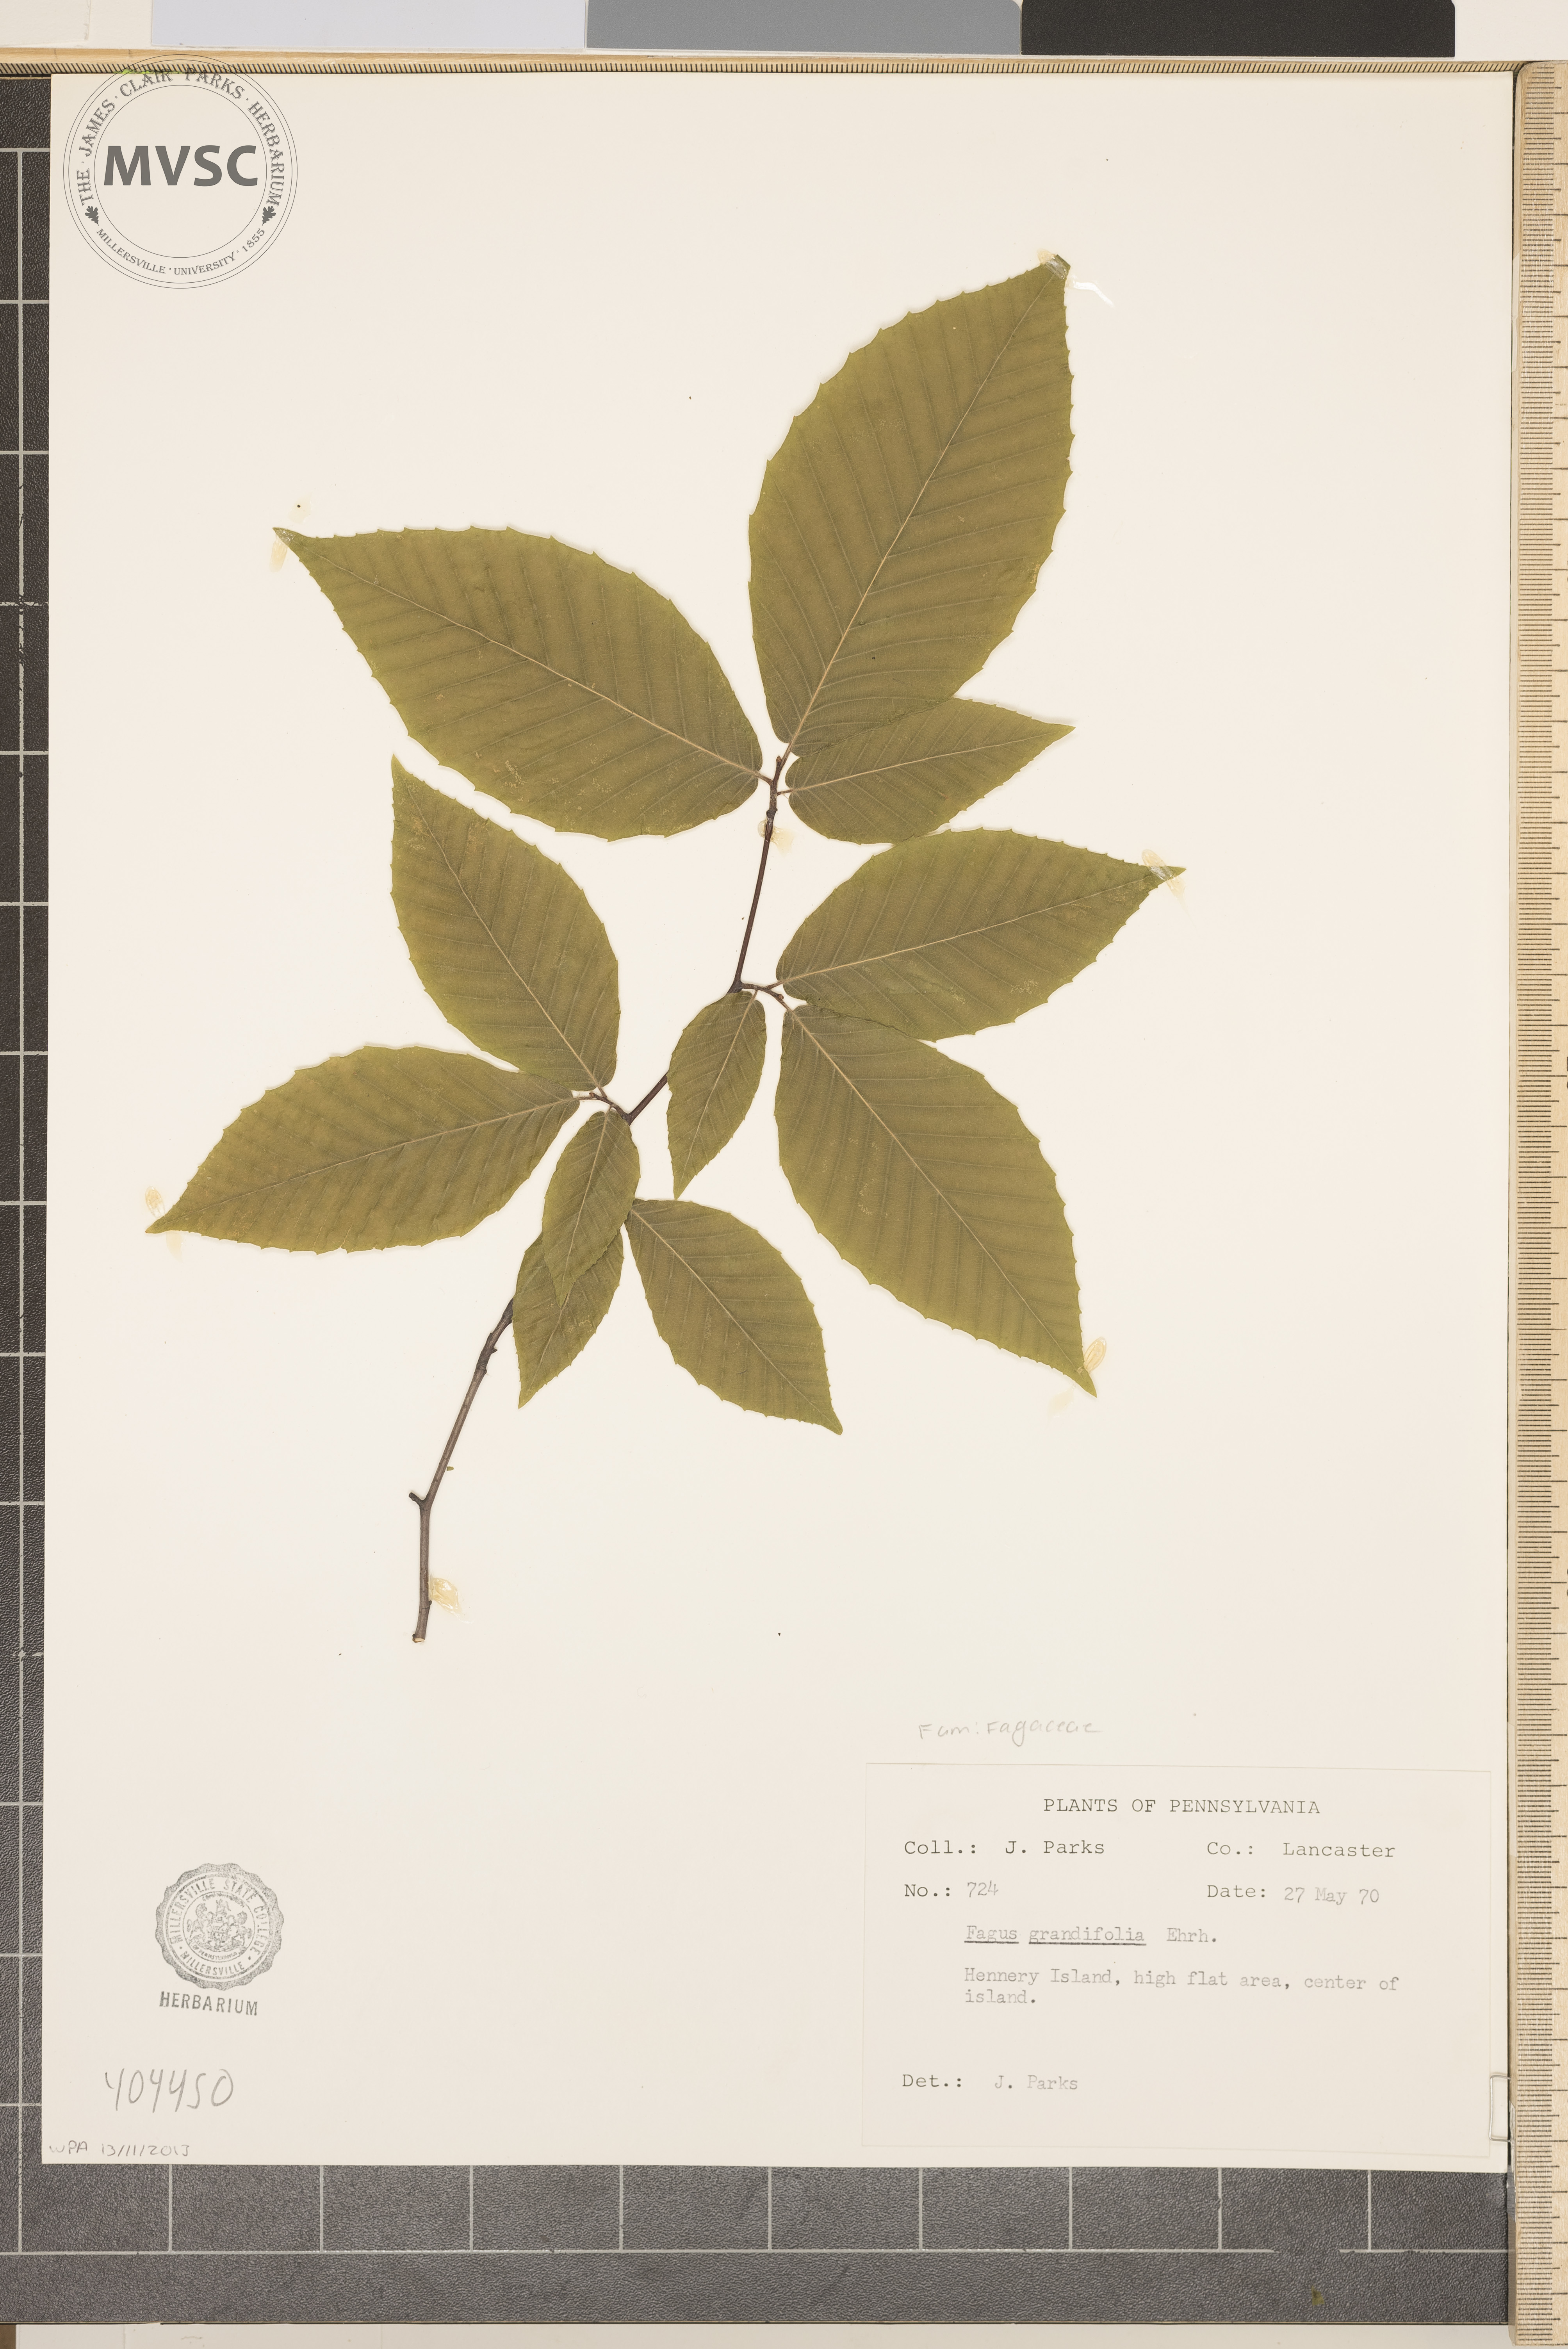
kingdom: Plantae
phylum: Tracheophyta
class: Magnoliopsida
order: Fagales
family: Fagaceae
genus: Fagus
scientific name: Fagus grandifolia
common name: American beech
